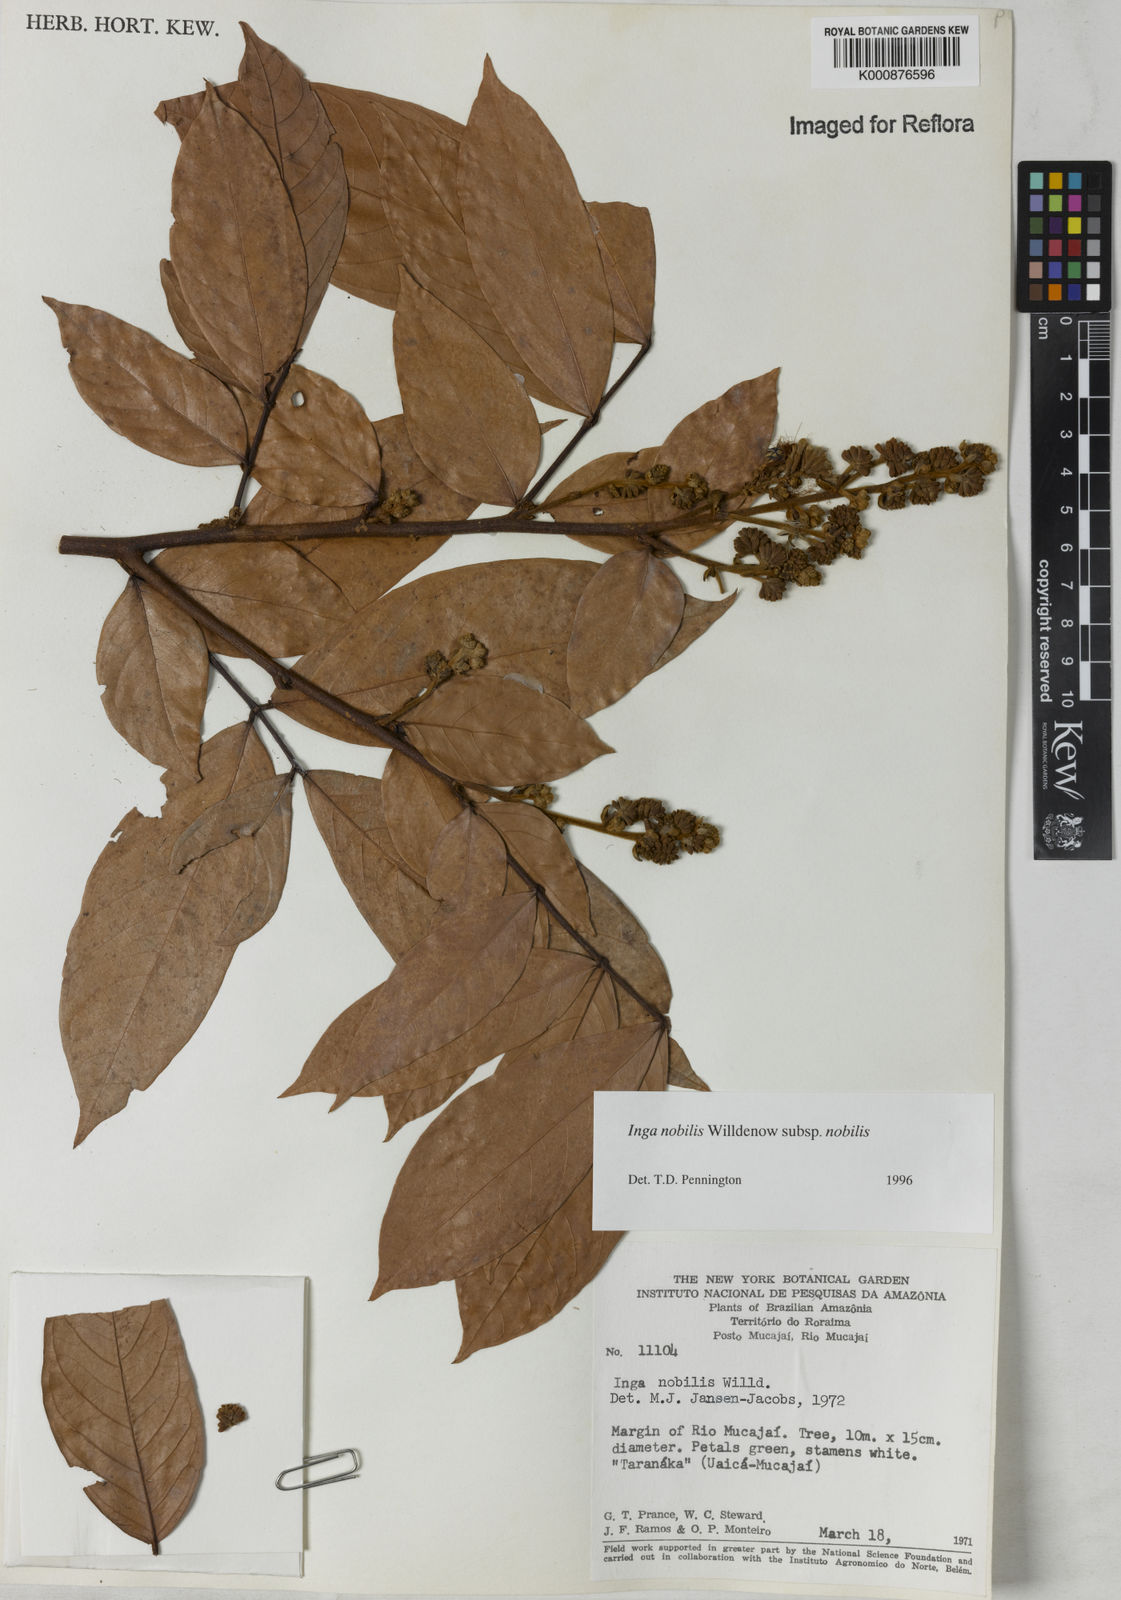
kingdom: Plantae
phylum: Tracheophyta
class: Magnoliopsida
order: Fabales
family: Fabaceae
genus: Inga
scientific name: Inga nobilis
